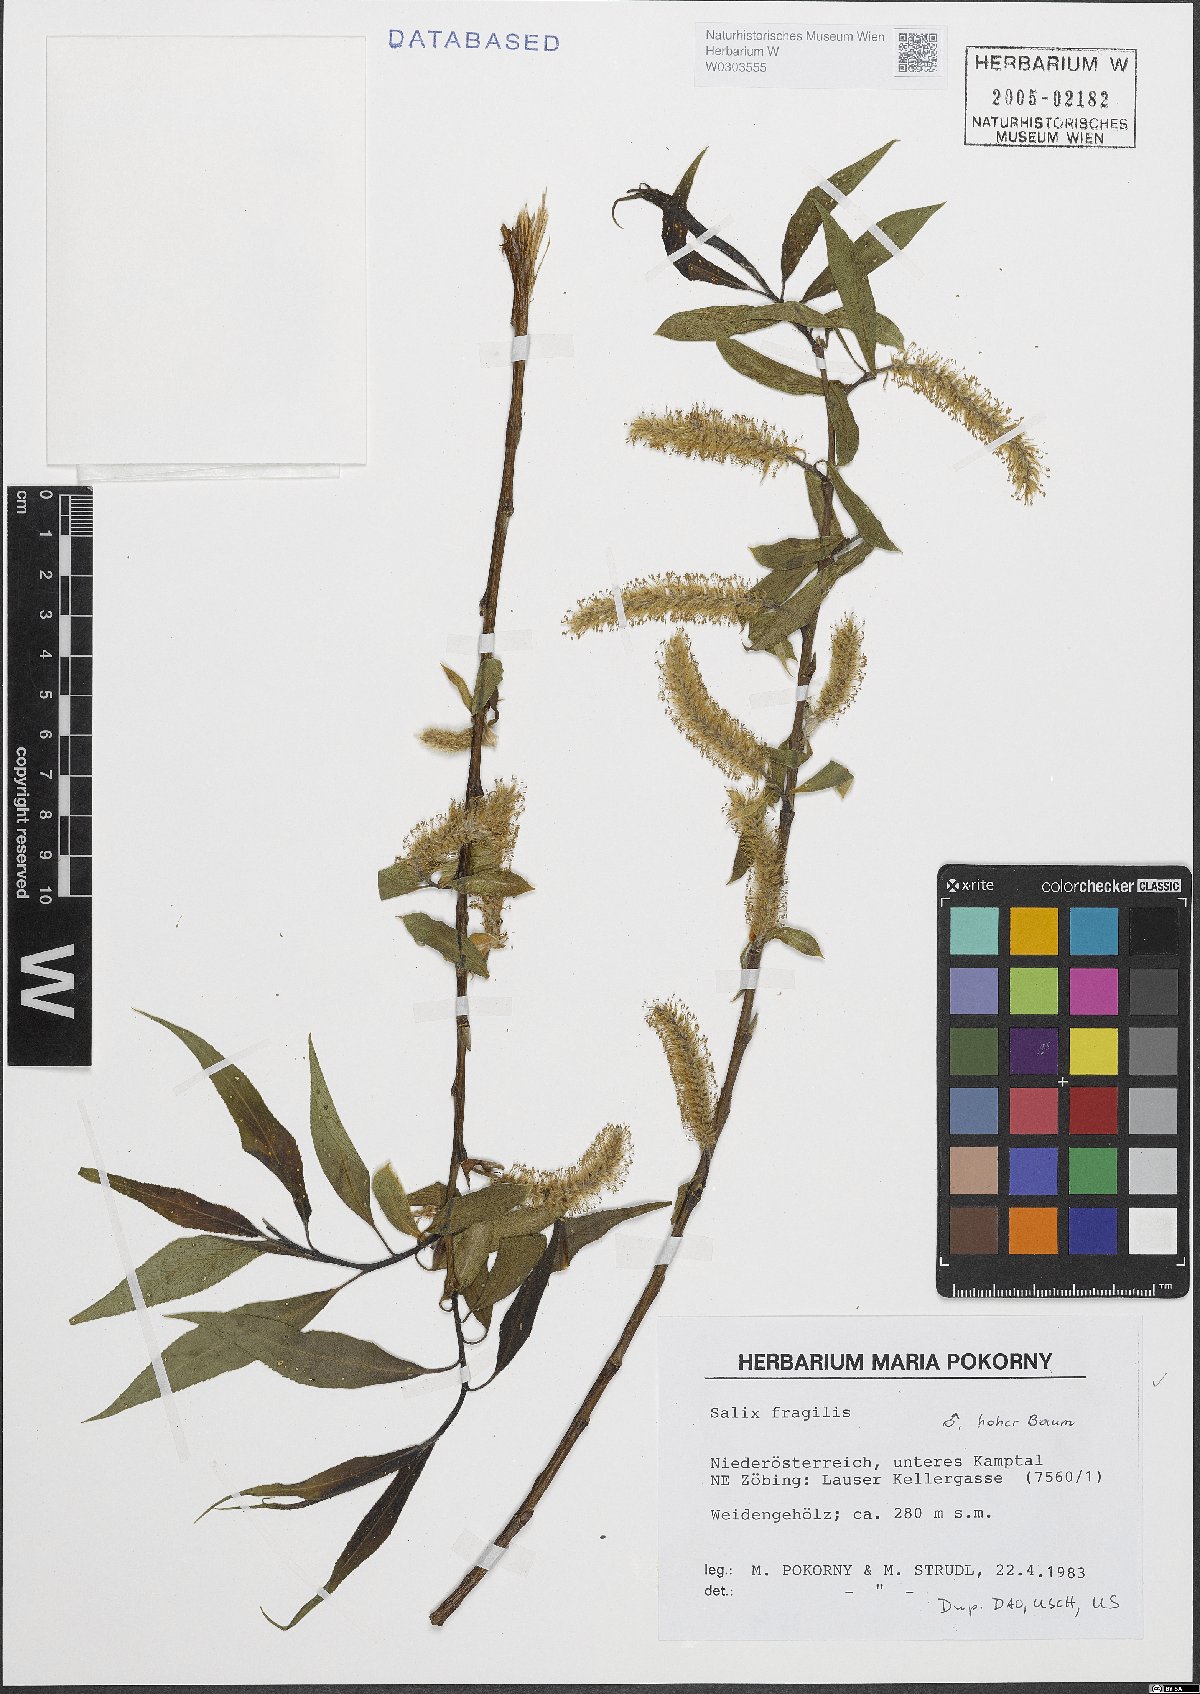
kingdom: Plantae
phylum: Tracheophyta
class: Magnoliopsida
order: Malpighiales
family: Salicaceae
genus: Salix
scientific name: Salix fragilis
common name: Crack willow
